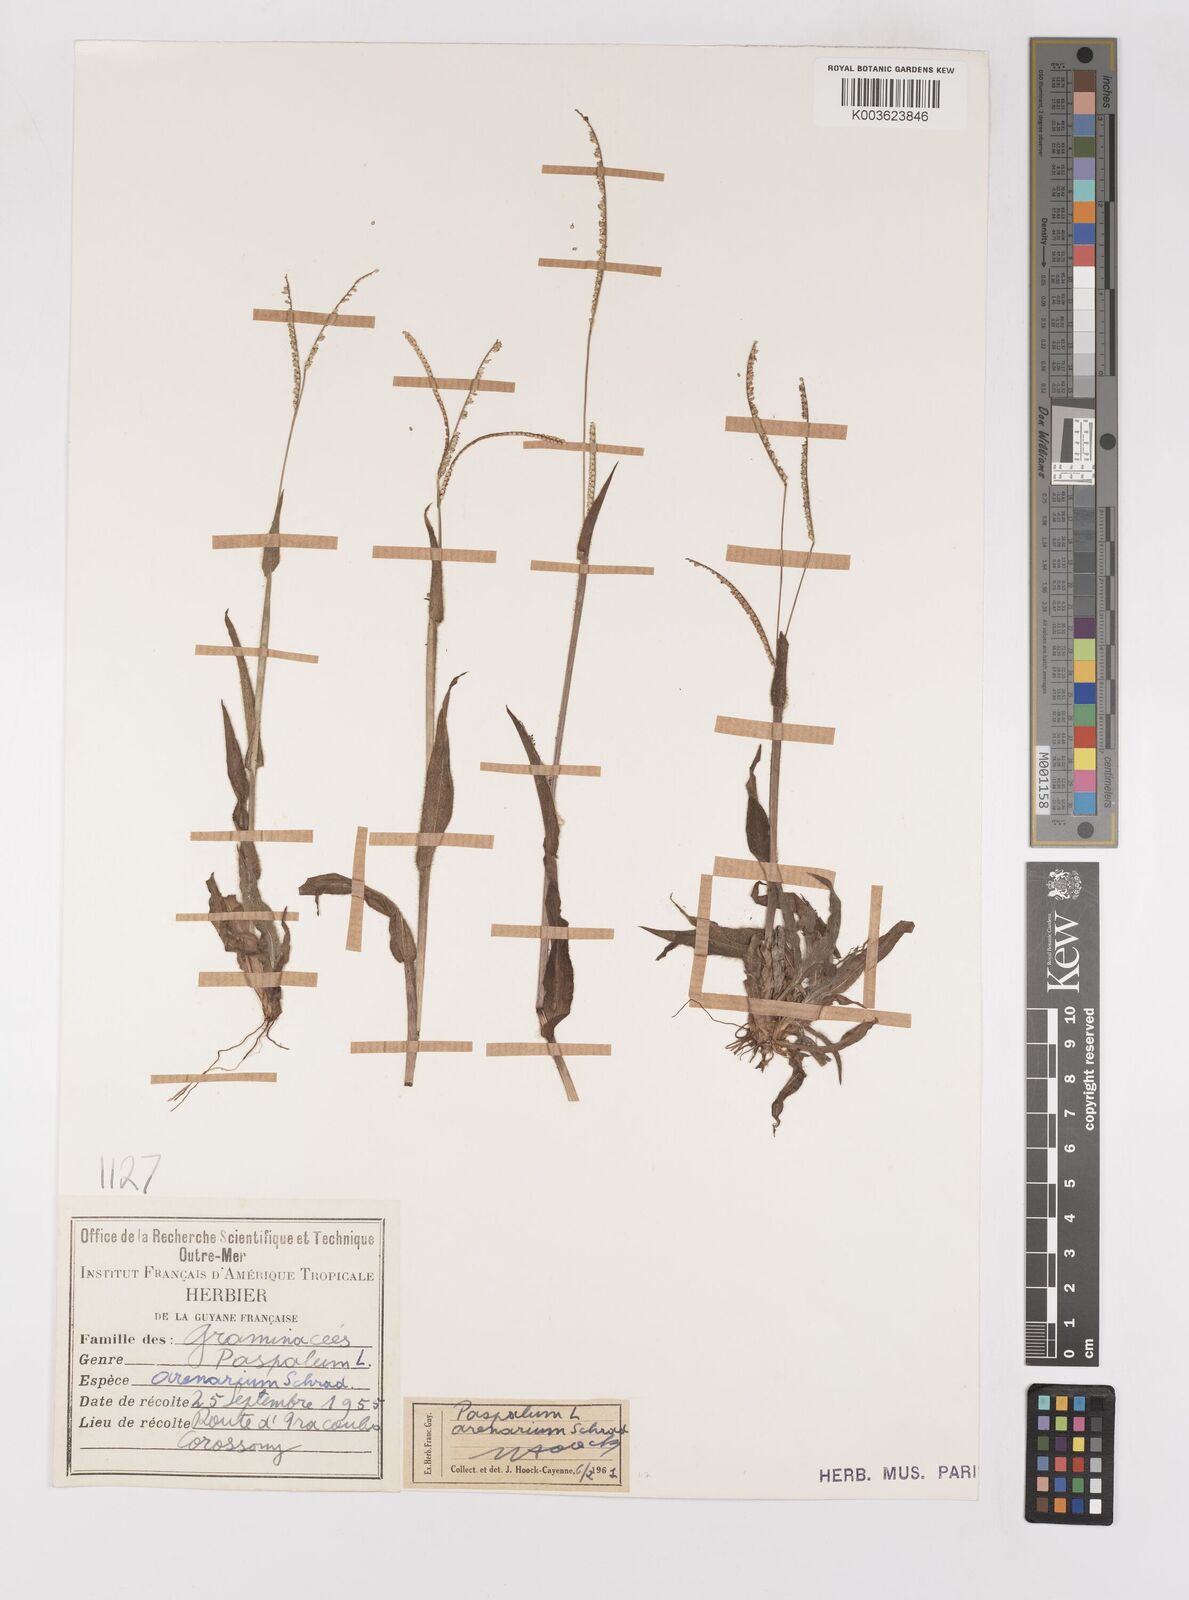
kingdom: Plantae
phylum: Tracheophyta
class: Liliopsida
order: Poales
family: Poaceae
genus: Paspalum
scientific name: Paspalum arenarium
